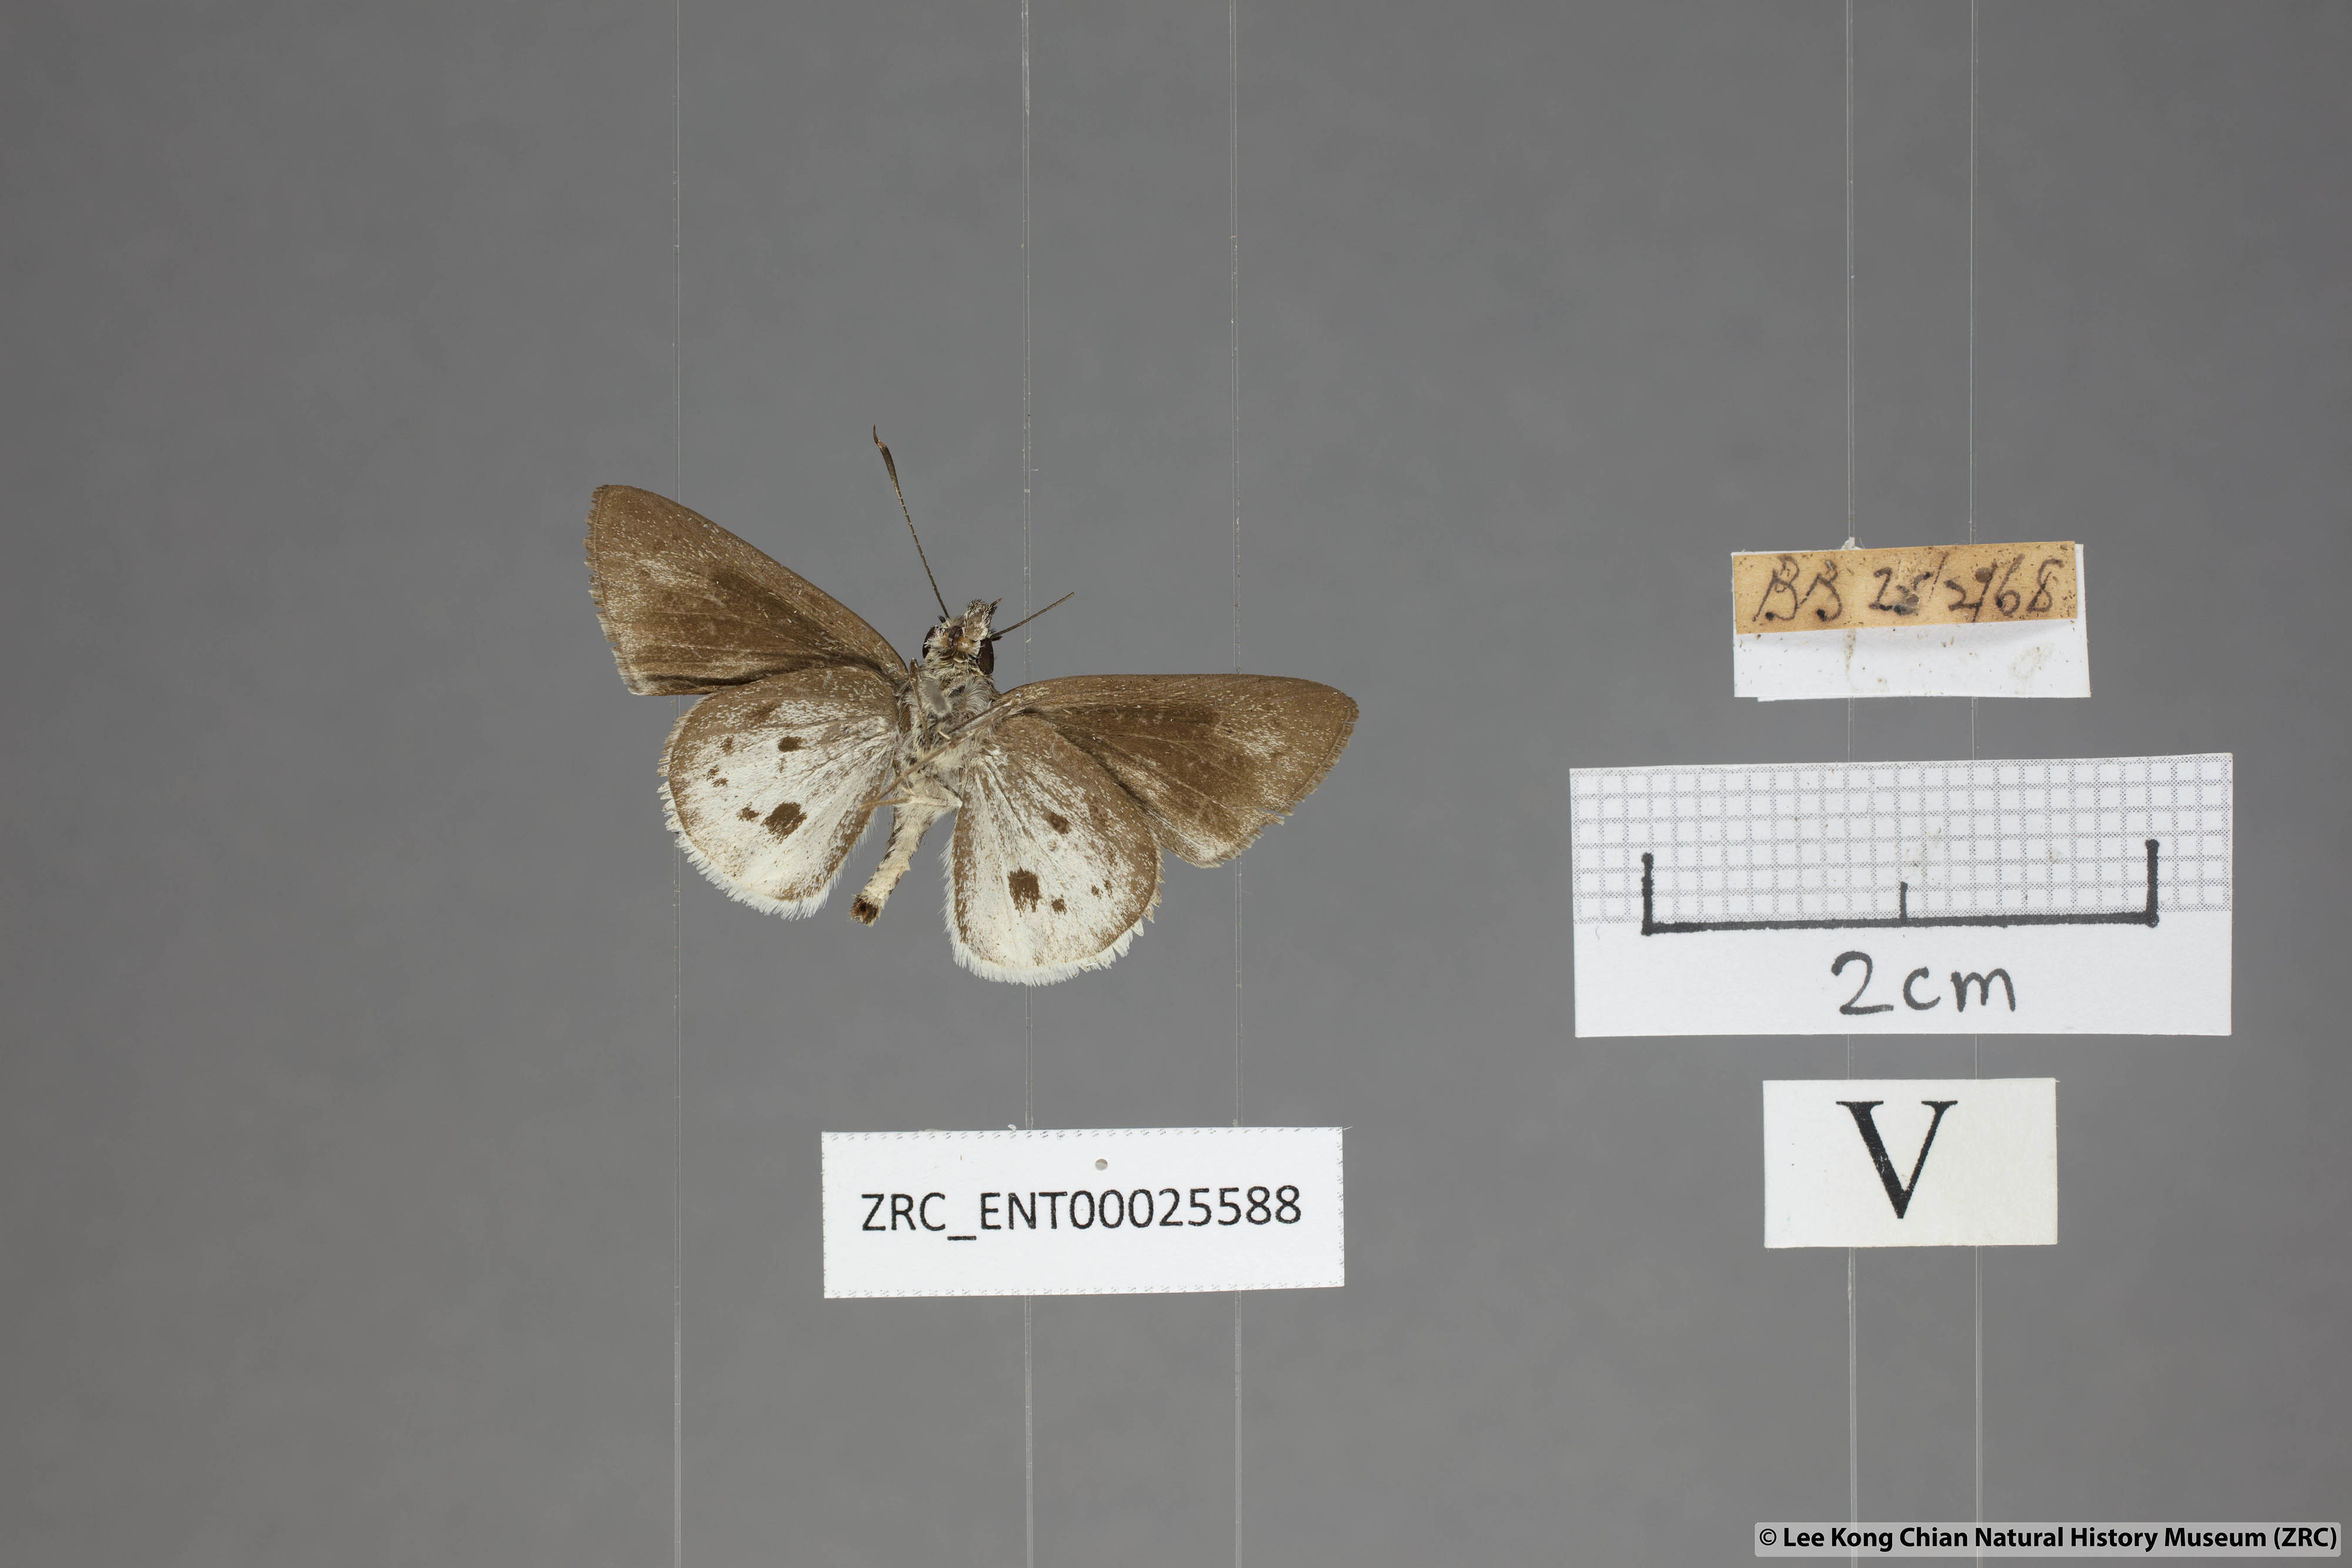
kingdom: Animalia
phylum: Arthropoda
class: Insecta
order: Lepidoptera
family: Hesperiidae
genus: Suastus
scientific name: Suastus everyx
